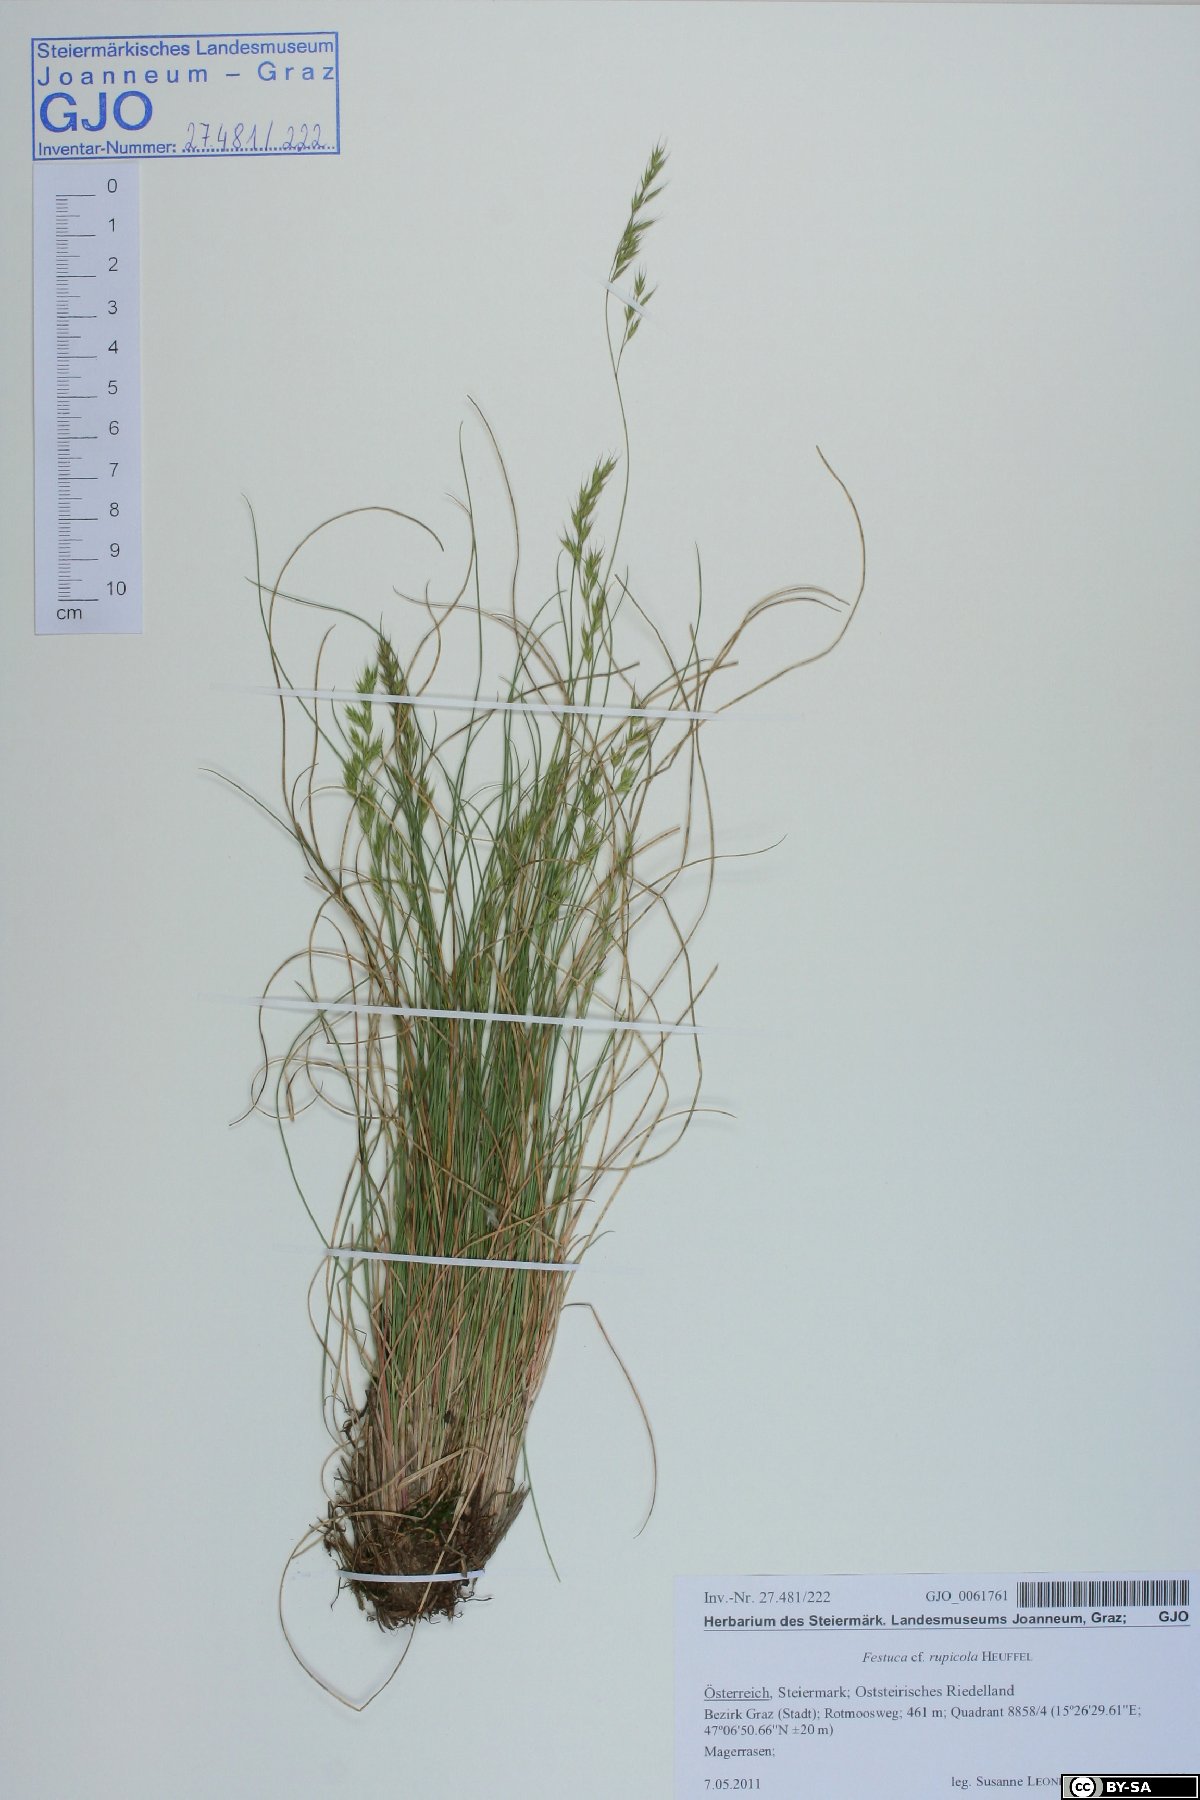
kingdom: Plantae
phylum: Tracheophyta
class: Liliopsida
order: Poales
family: Poaceae
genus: Festuca
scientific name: Festuca rupicola
